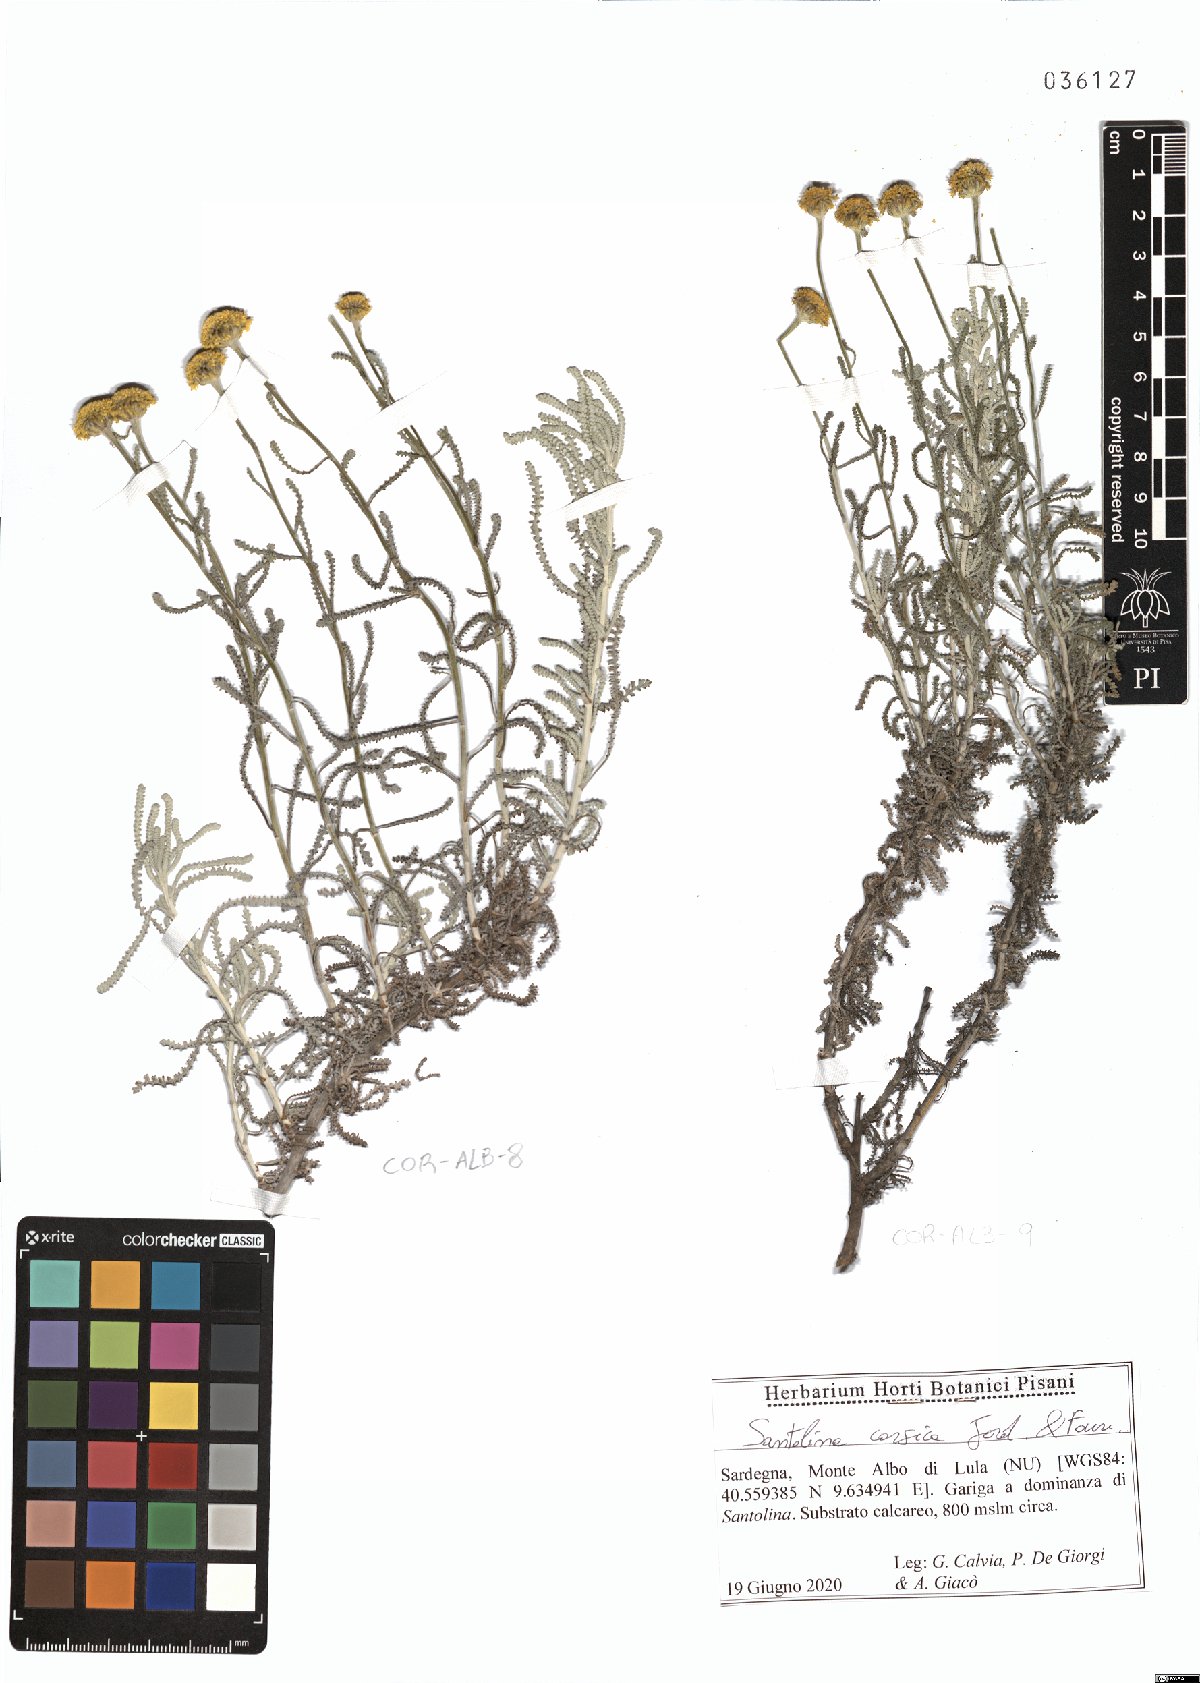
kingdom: Plantae
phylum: Tracheophyta
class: Magnoliopsida
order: Asterales
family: Asteraceae
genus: Santolina
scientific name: Santolina corsica
